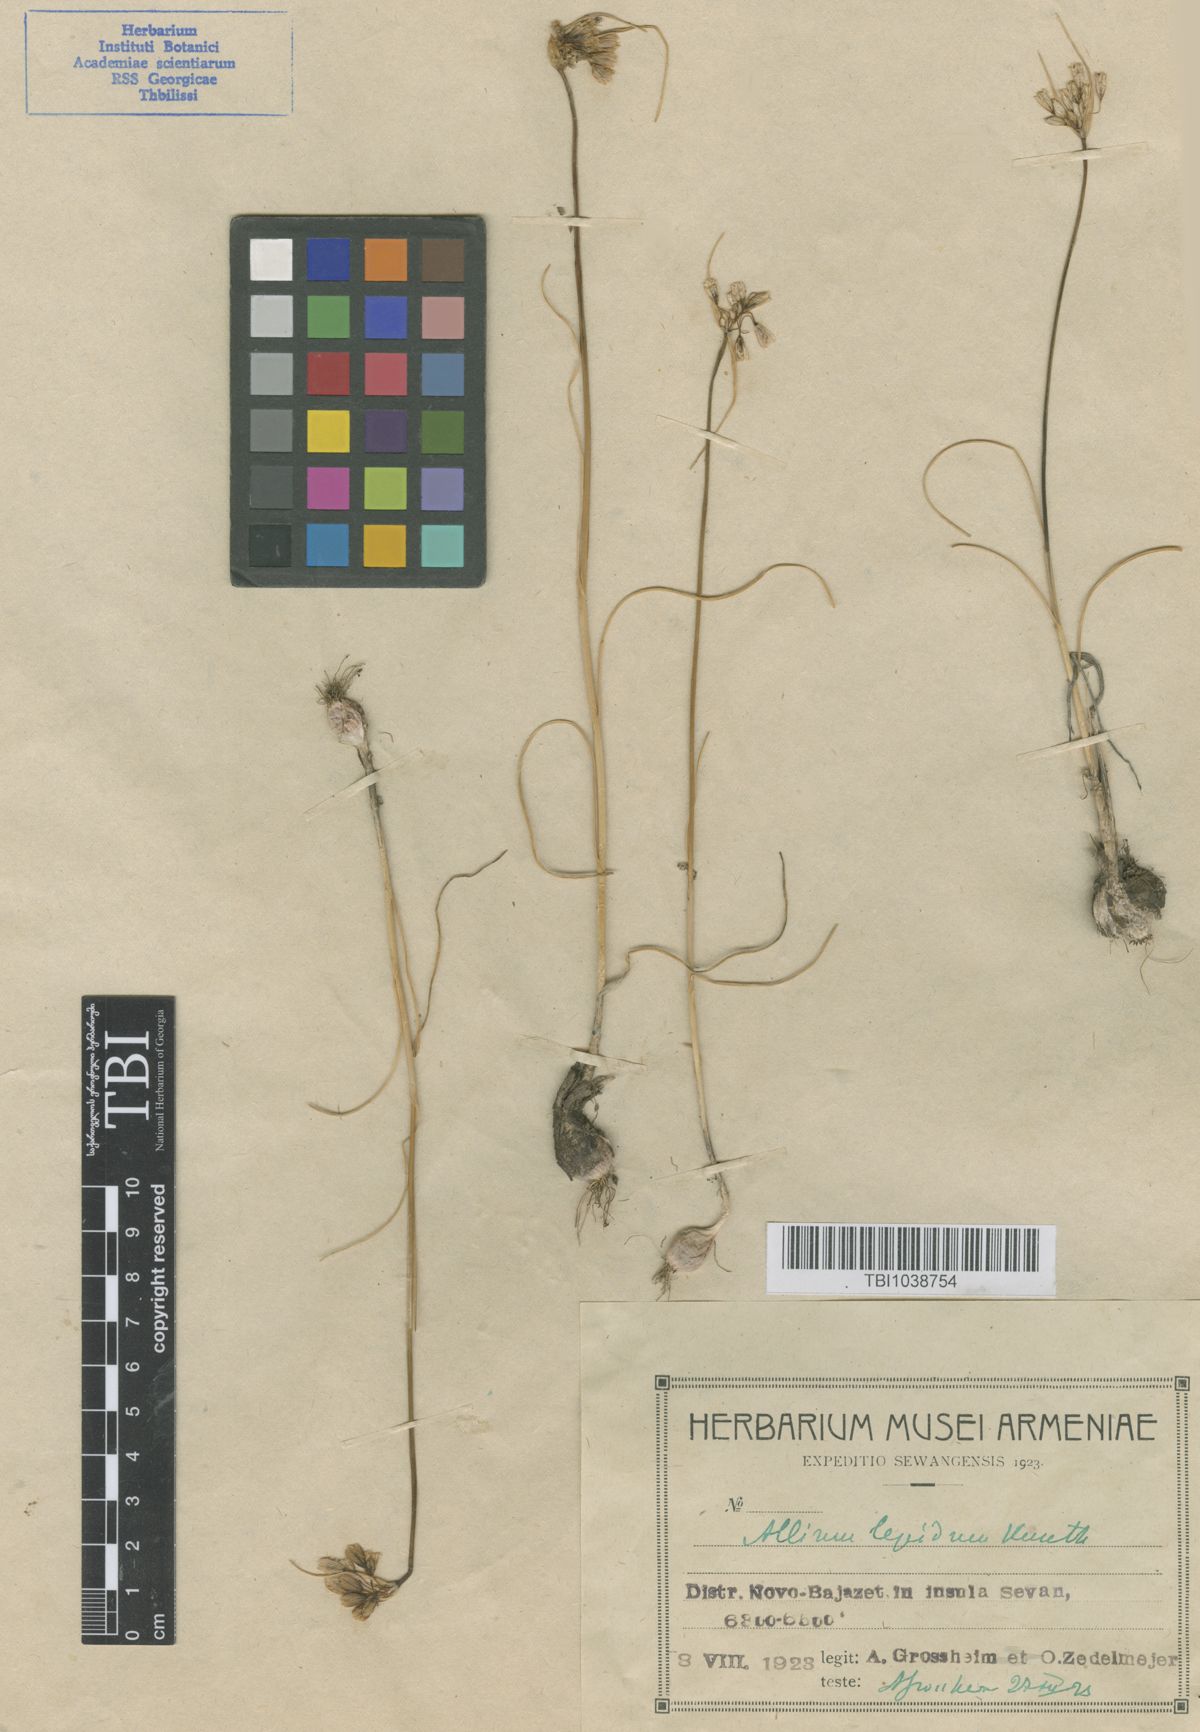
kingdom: Plantae
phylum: Tracheophyta
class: Liliopsida
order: Asparagales
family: Amaryllidaceae
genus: Allium
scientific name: Allium kunthianum
